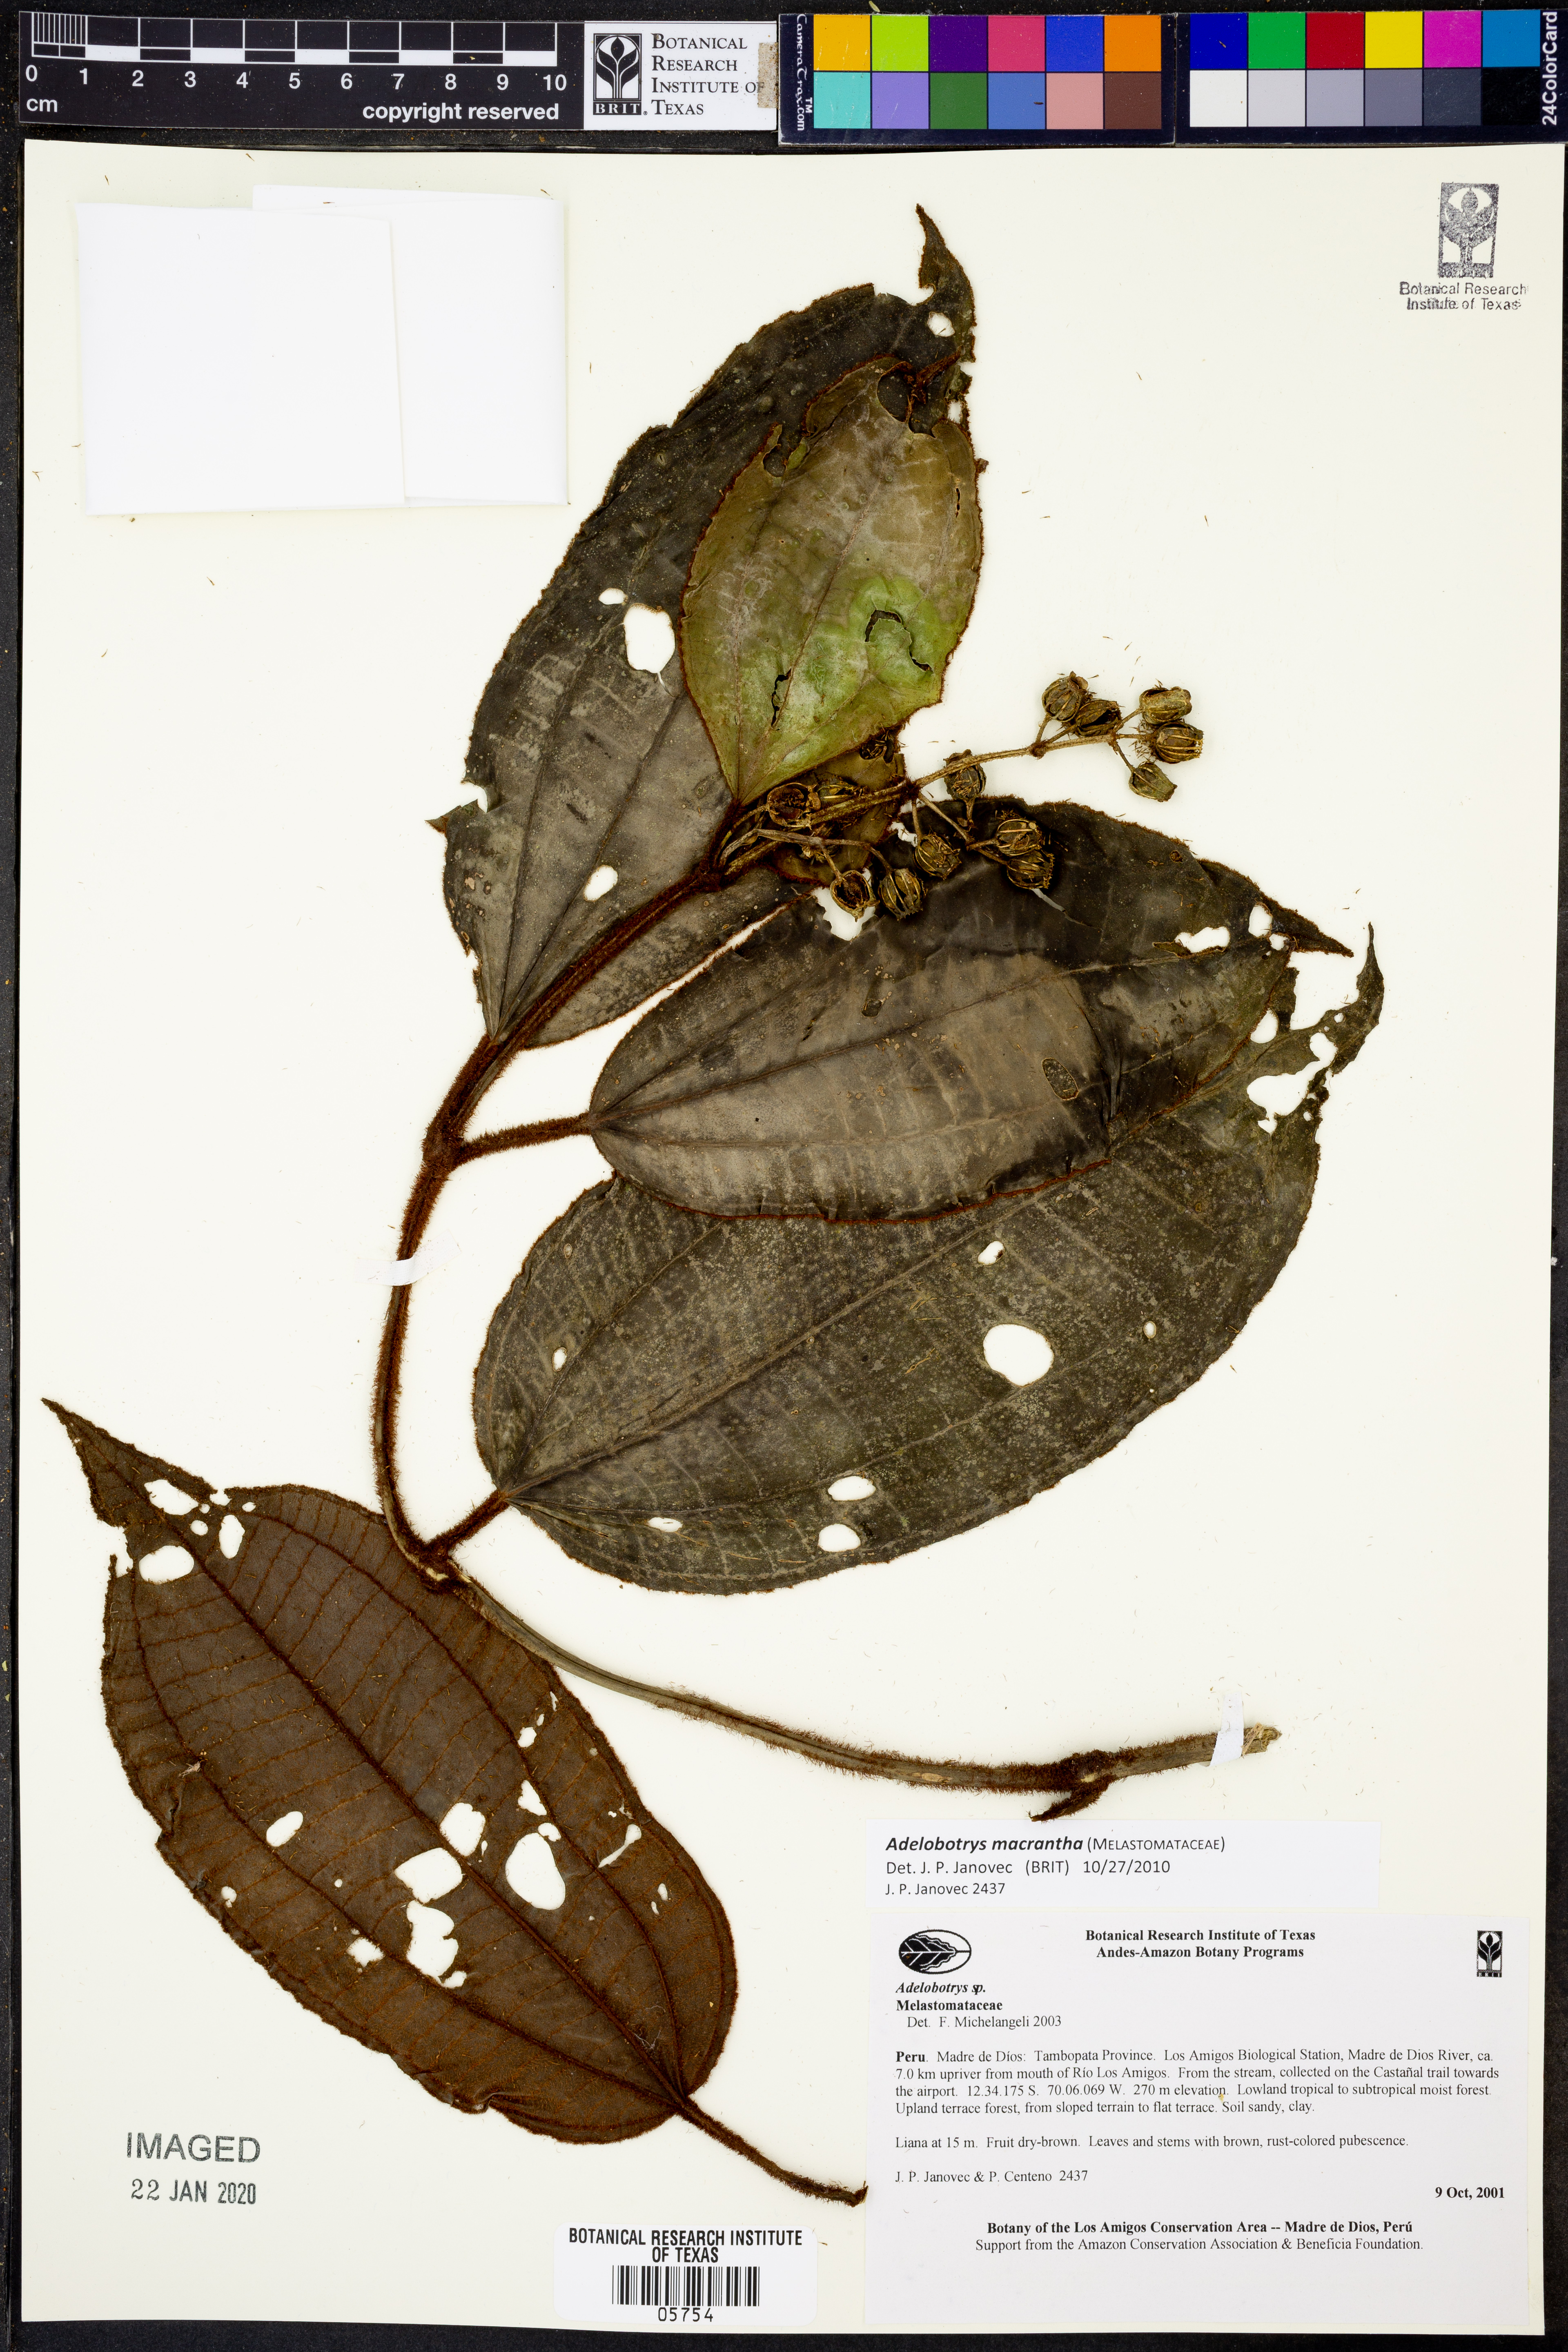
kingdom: Plantae
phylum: Tracheophyta
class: Magnoliopsida
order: Myrtales
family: Melastomataceae
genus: Adelobotrys
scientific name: Adelobotrys macranthus
